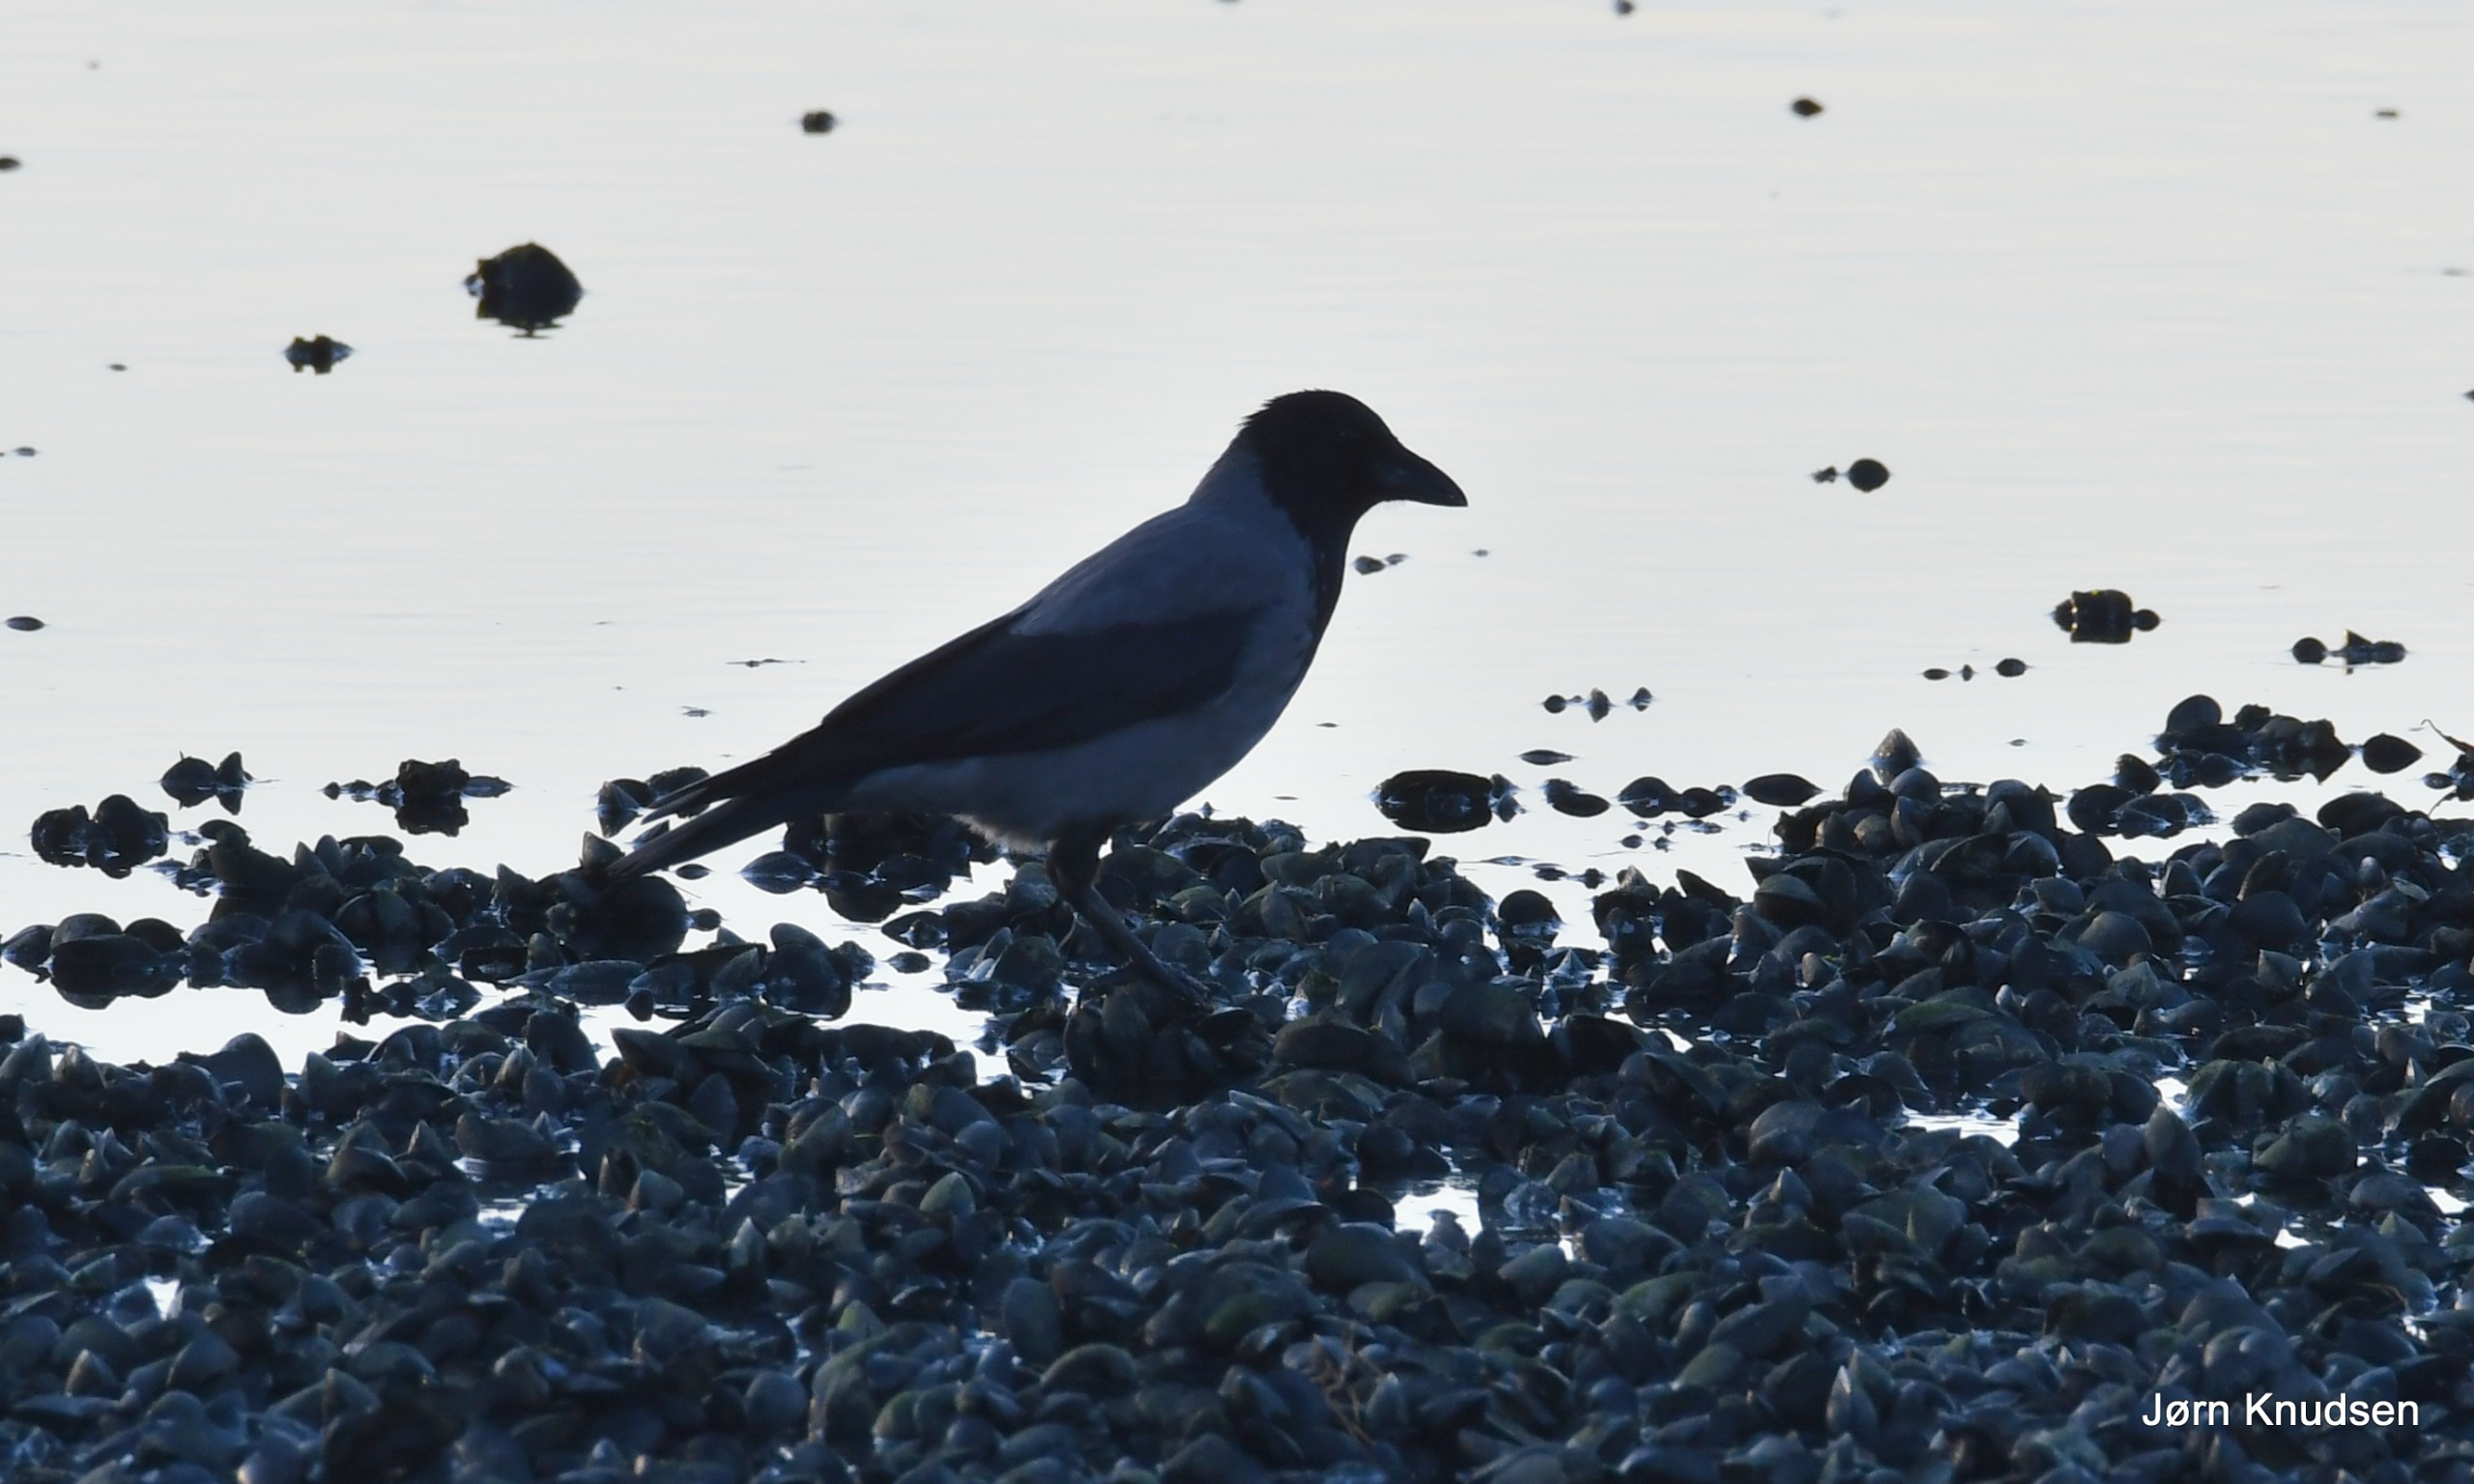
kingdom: Animalia
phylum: Chordata
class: Aves
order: Passeriformes
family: Corvidae
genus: Corvus
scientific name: Corvus cornix
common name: Gråkrage
